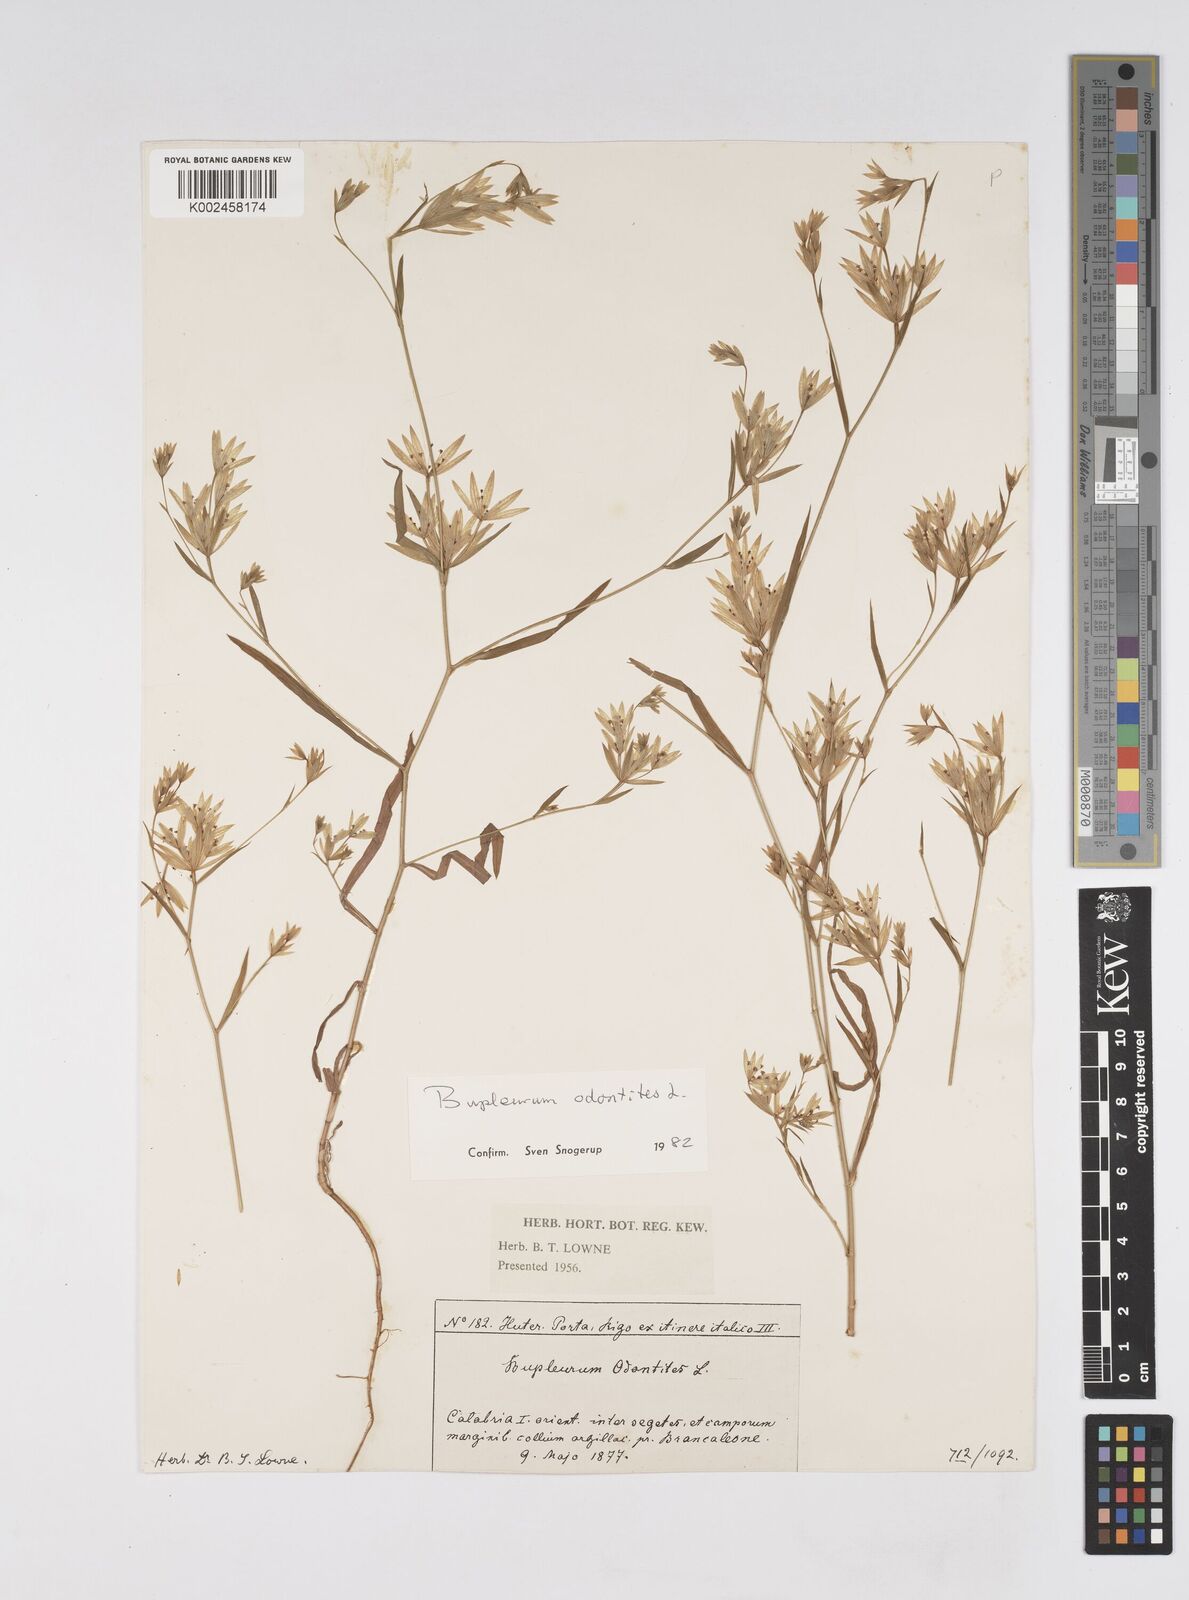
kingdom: Plantae
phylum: Tracheophyta
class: Magnoliopsida
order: Apiales
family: Apiaceae
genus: Bupleurum
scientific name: Bupleurum odontites
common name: Narrowleaf thorow wax
